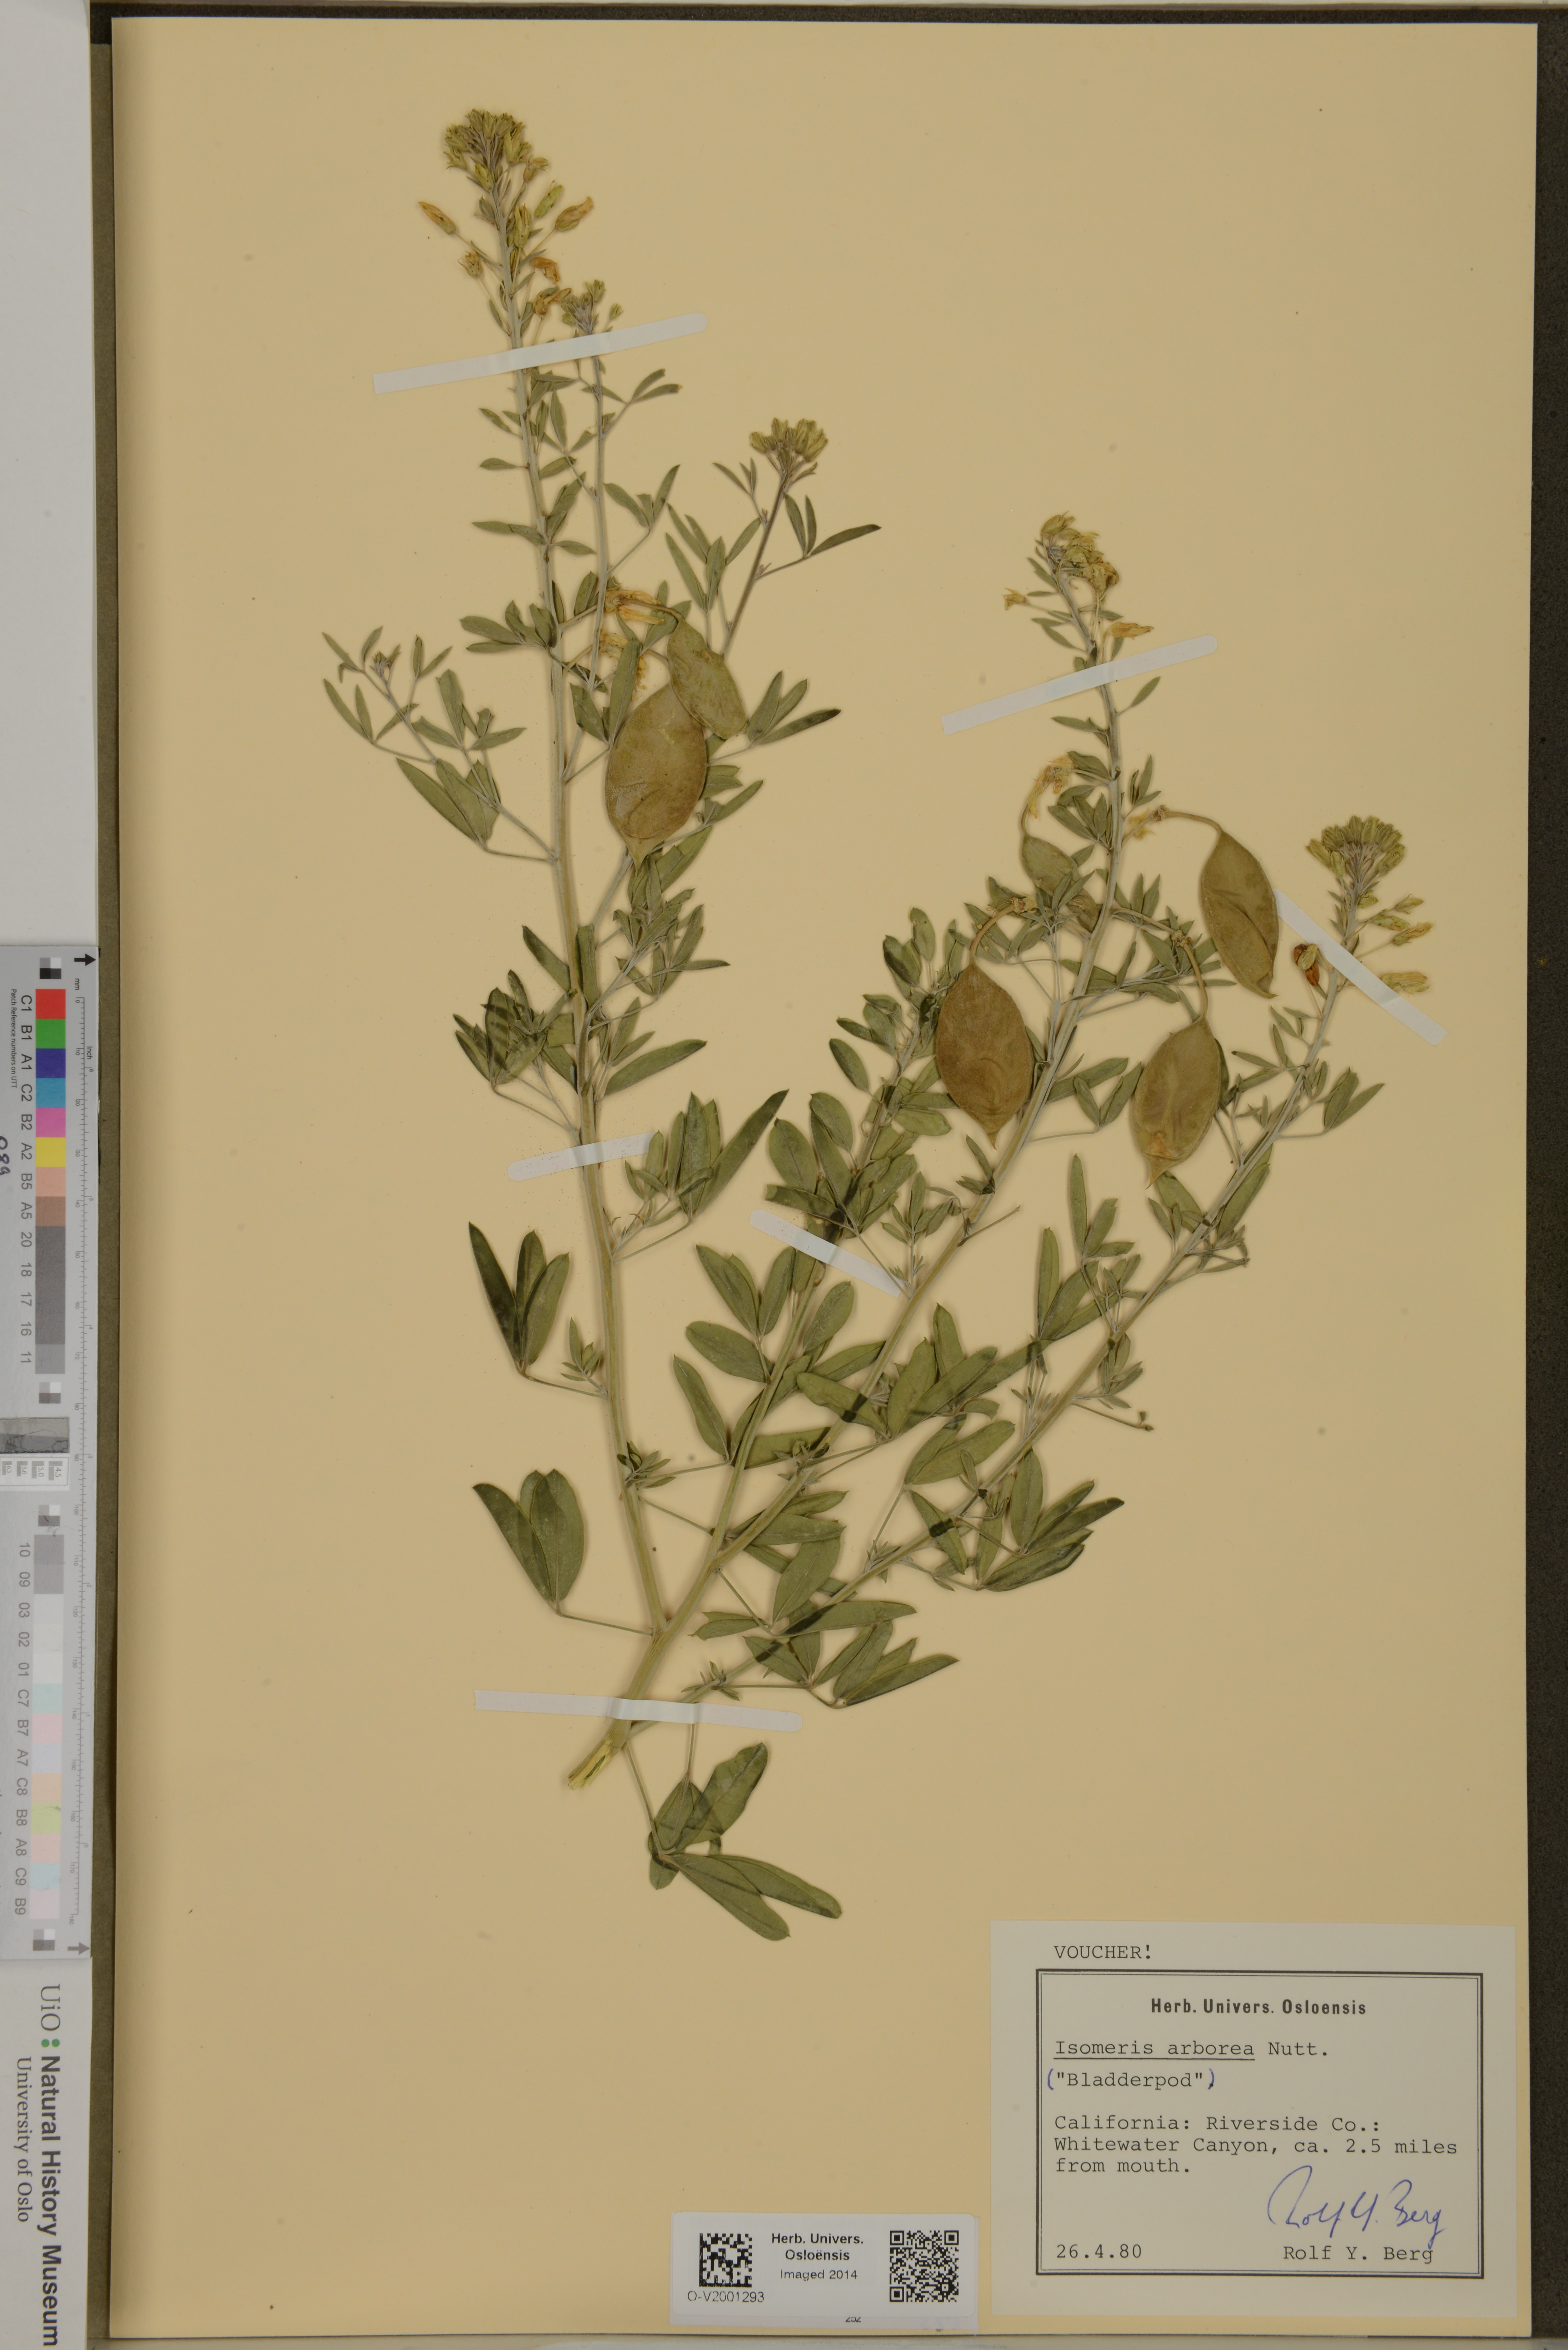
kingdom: Plantae
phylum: Tracheophyta
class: Magnoliopsida
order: Brassicales
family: Cleomaceae
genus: Cleomella
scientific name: Cleomella arborea
